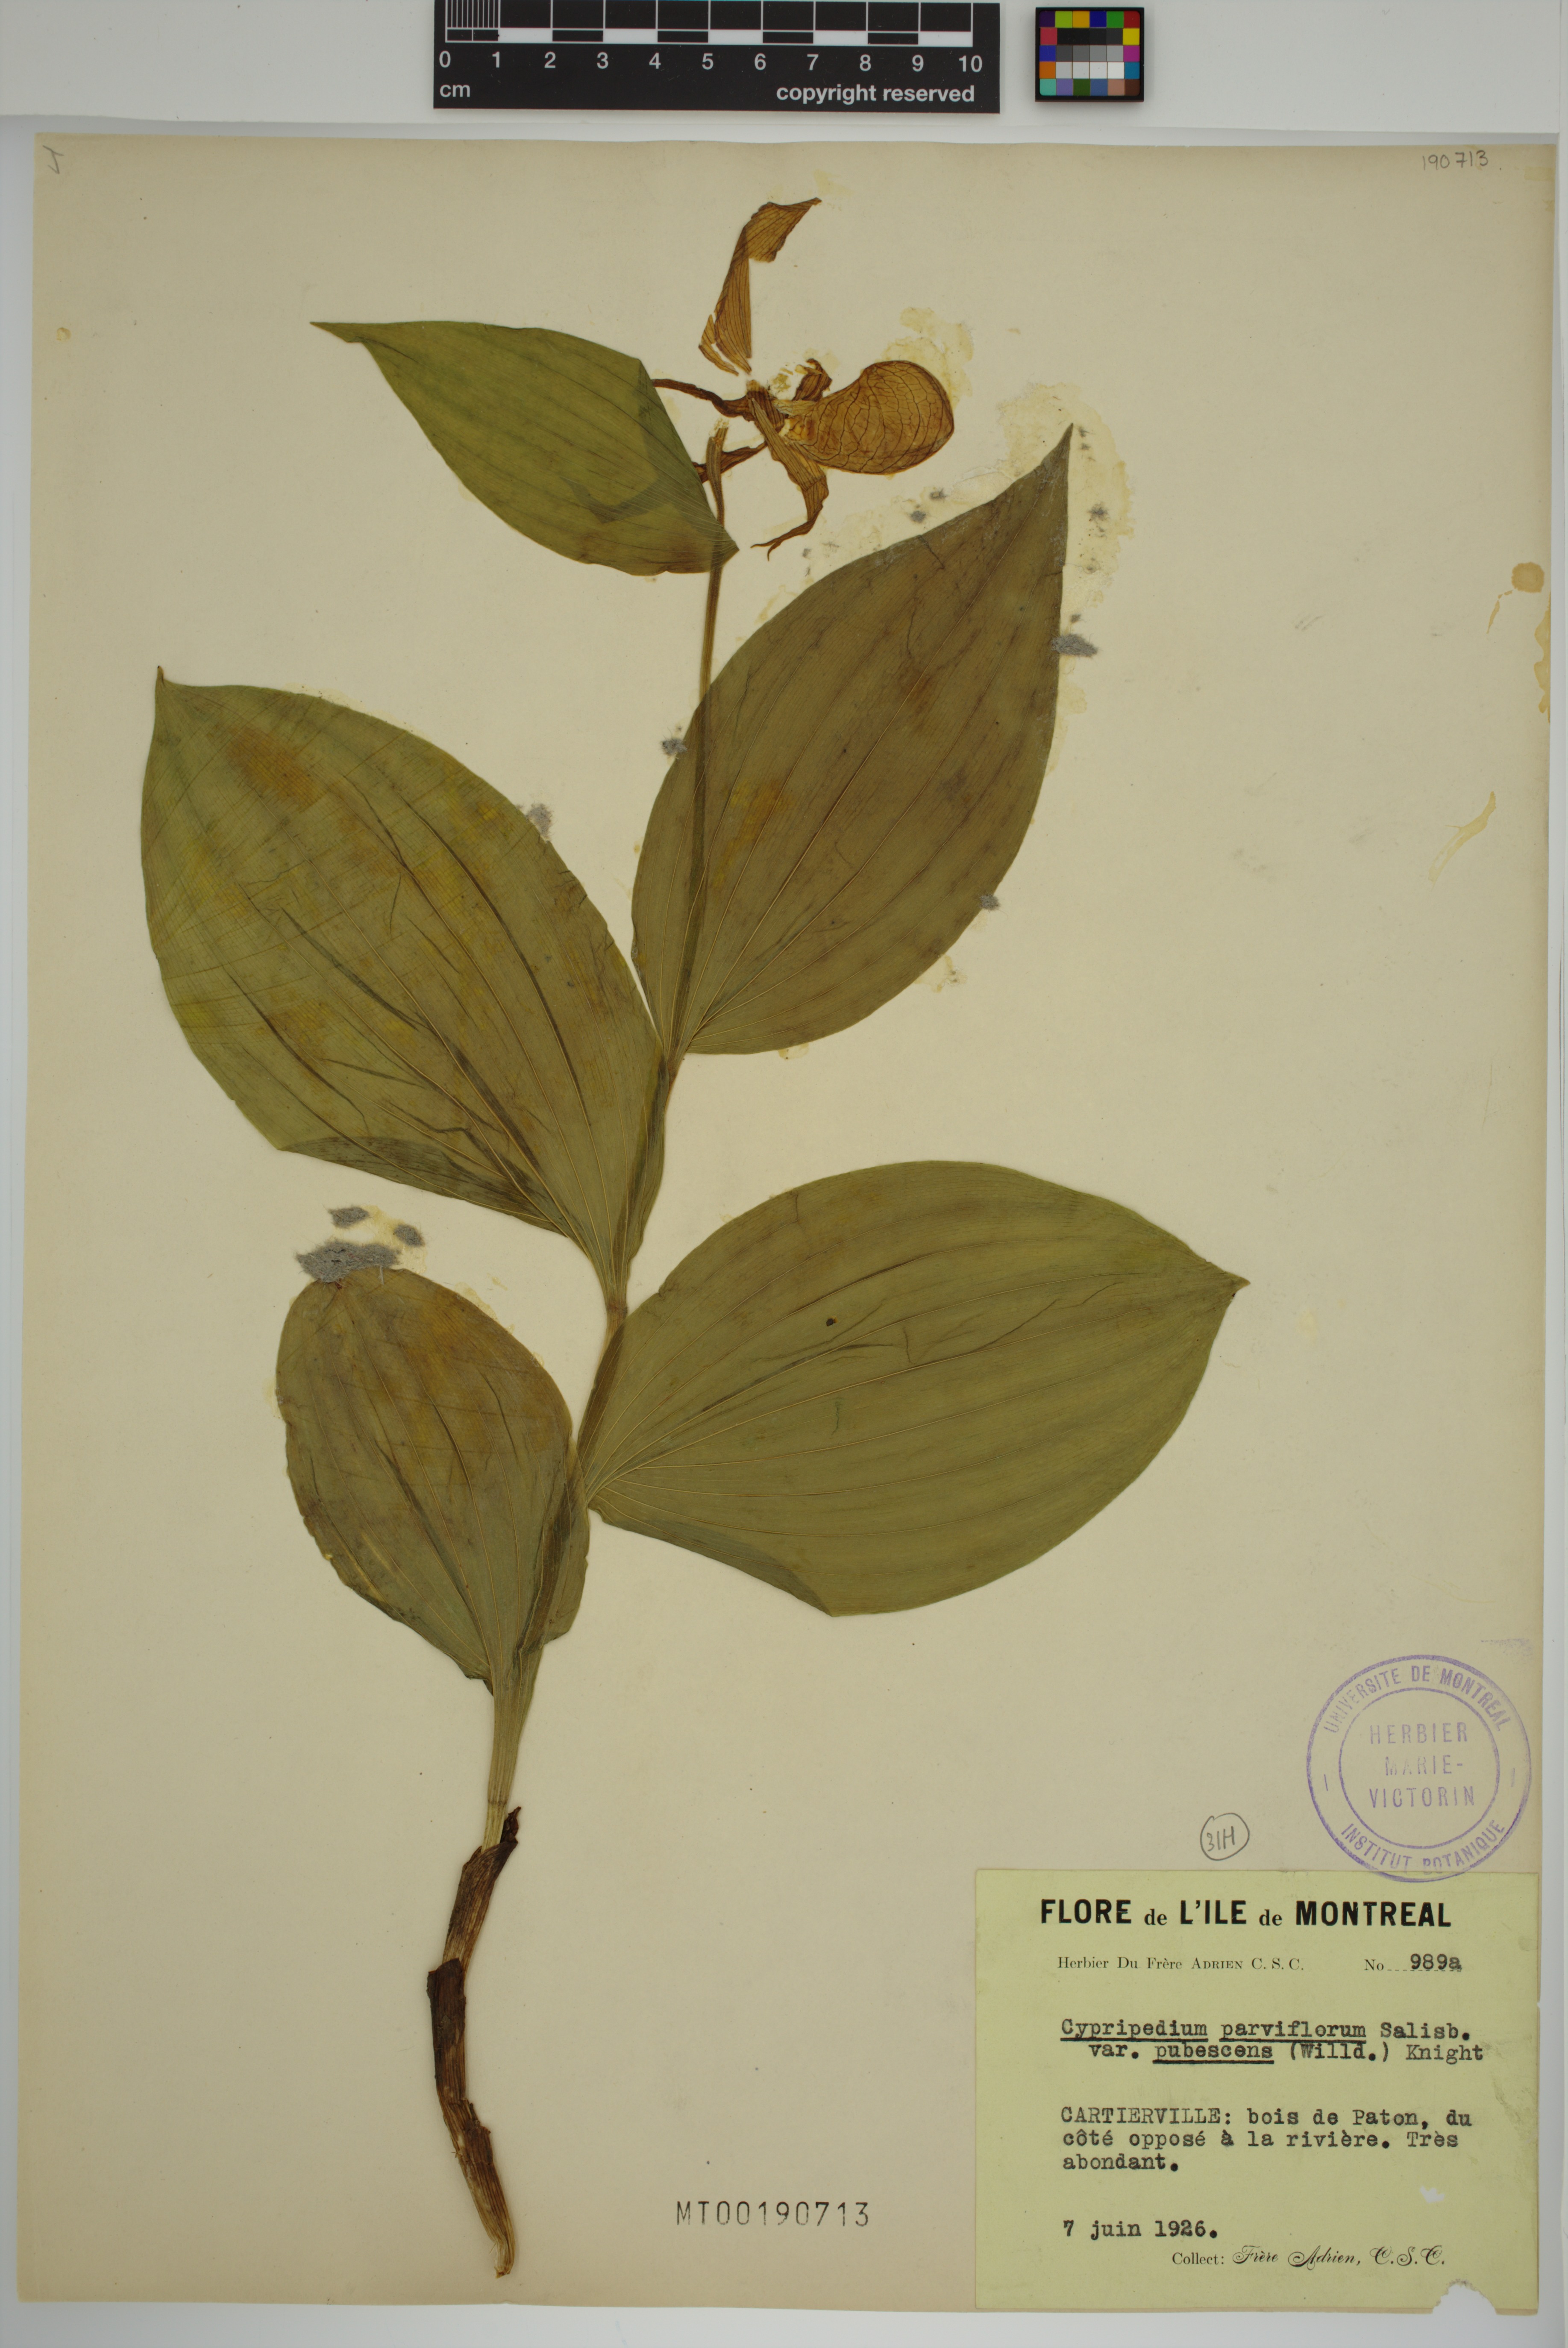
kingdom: Plantae
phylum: Tracheophyta
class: Liliopsida
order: Asparagales
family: Orchidaceae
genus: Cypripedium
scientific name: Cypripedium parviflorum
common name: American yellow lady's-slipper
